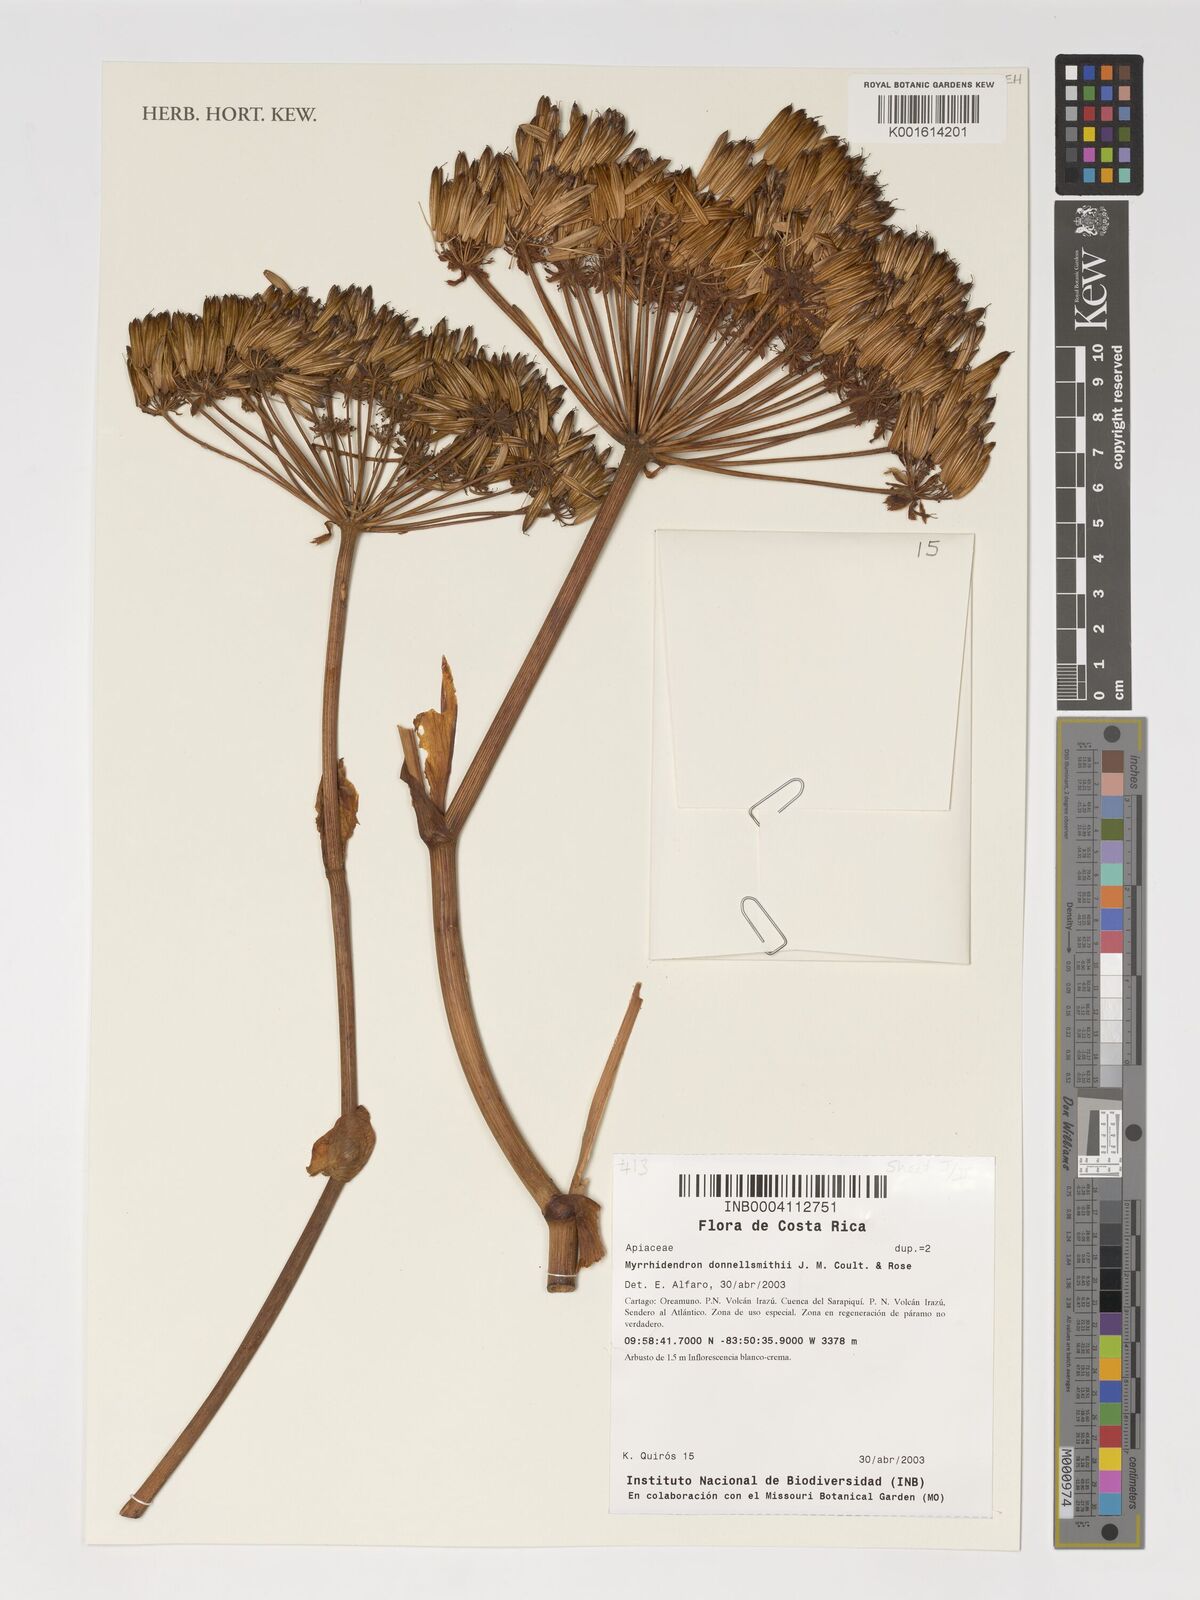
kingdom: Plantae
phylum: Tracheophyta
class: Magnoliopsida
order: Apiales
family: Apiaceae
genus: Myrrhidendron
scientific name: Myrrhidendron donnellsmithii
